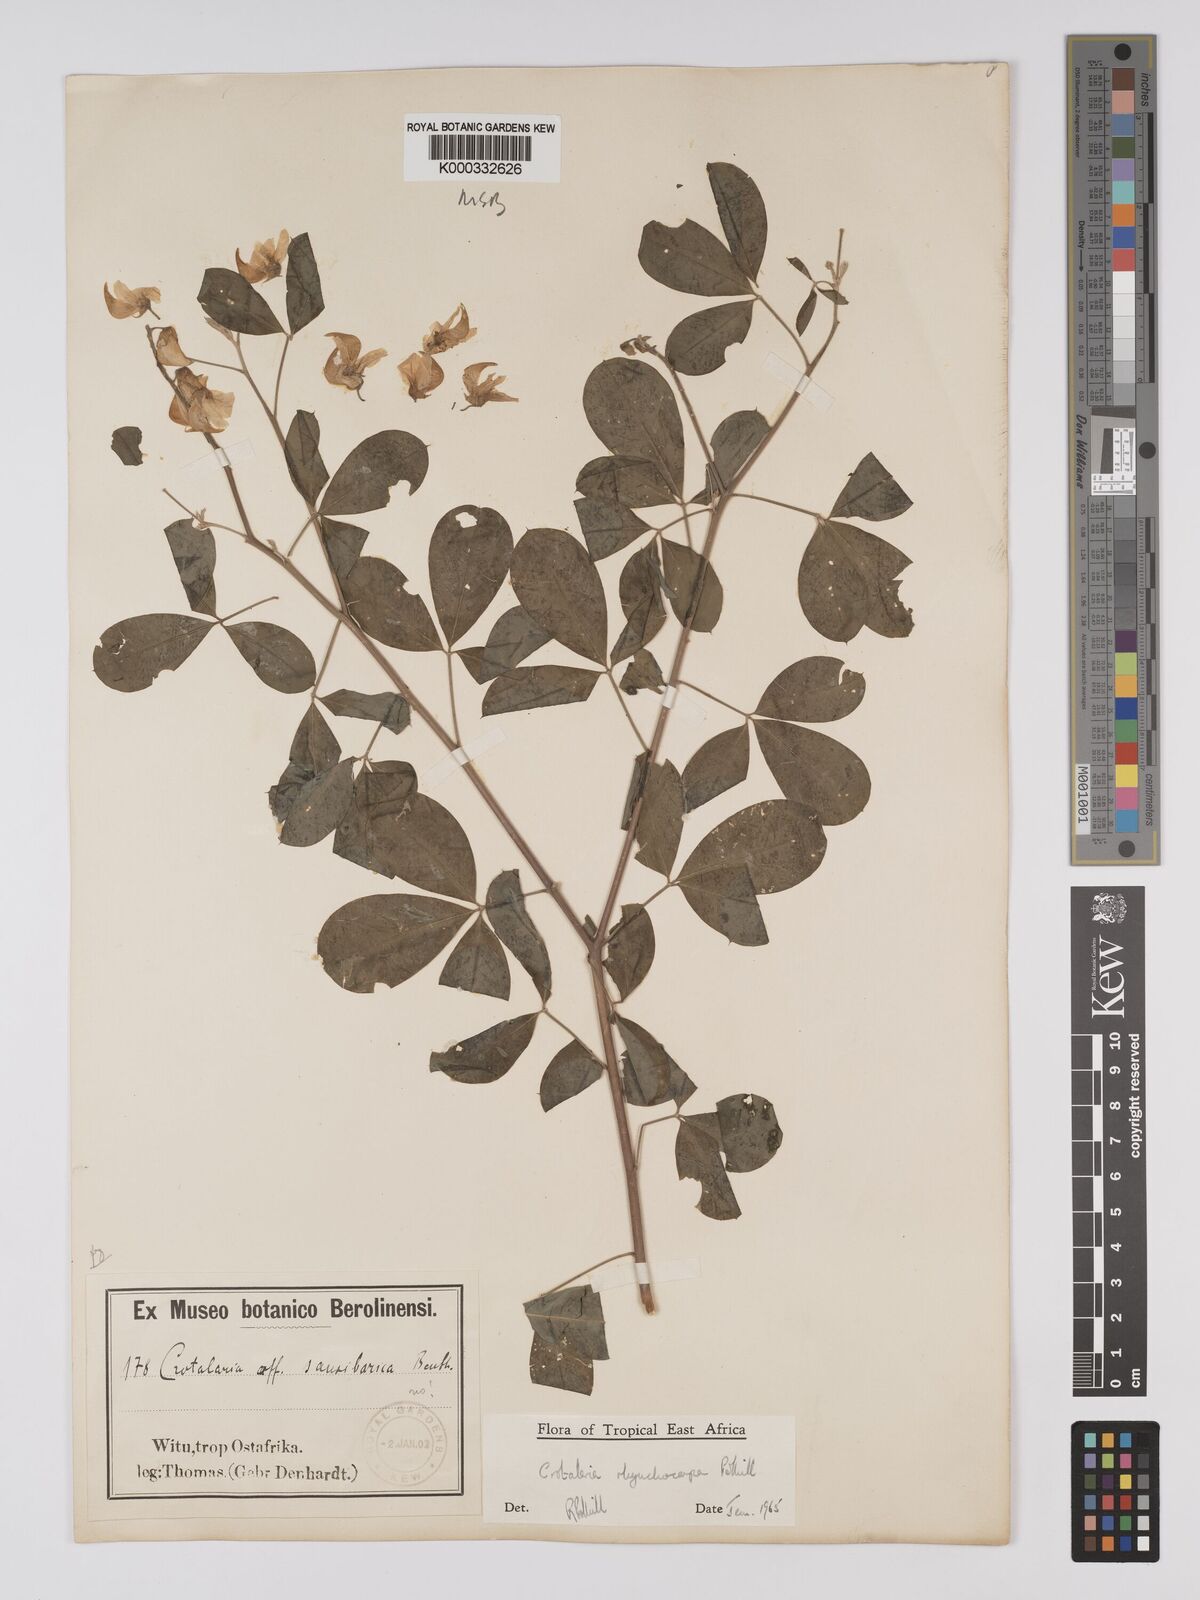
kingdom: Plantae
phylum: Tracheophyta
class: Magnoliopsida
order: Fabales
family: Fabaceae
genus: Crotalaria
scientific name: Crotalaria rhynchocarpa
